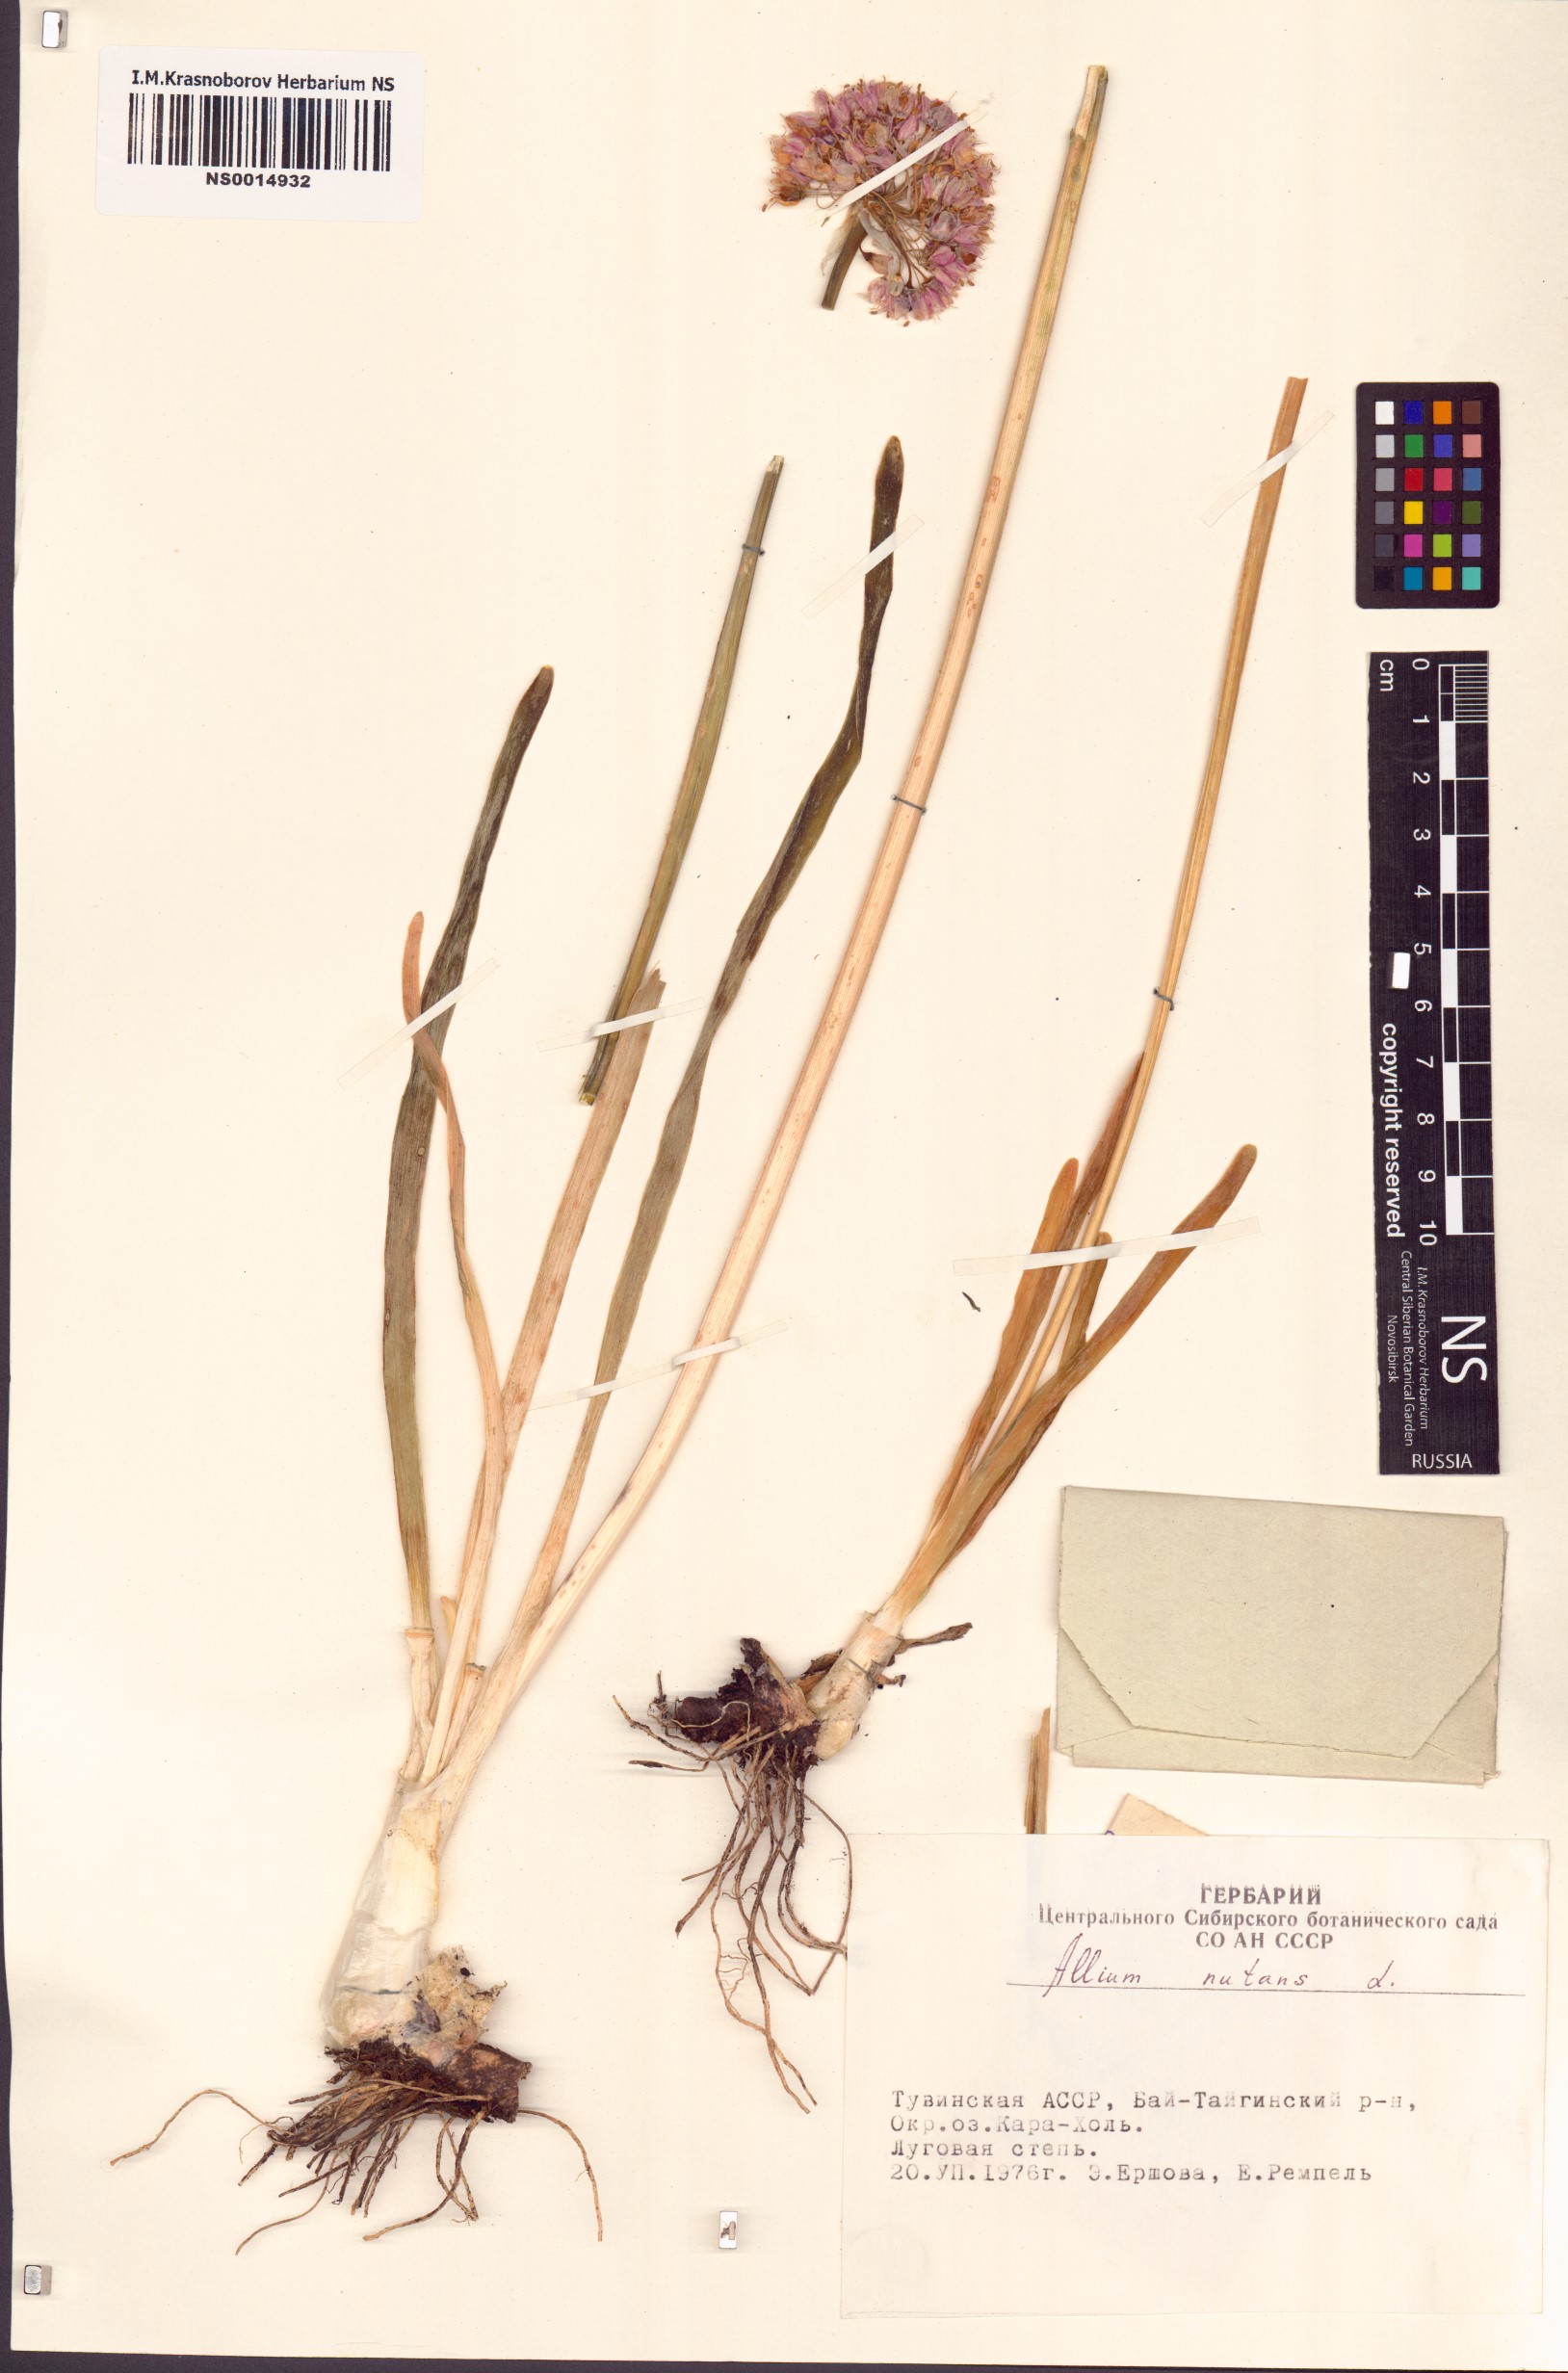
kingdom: Plantae
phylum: Tracheophyta
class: Liliopsida
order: Asparagales
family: Amaryllidaceae
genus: Allium
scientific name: Allium nutans
